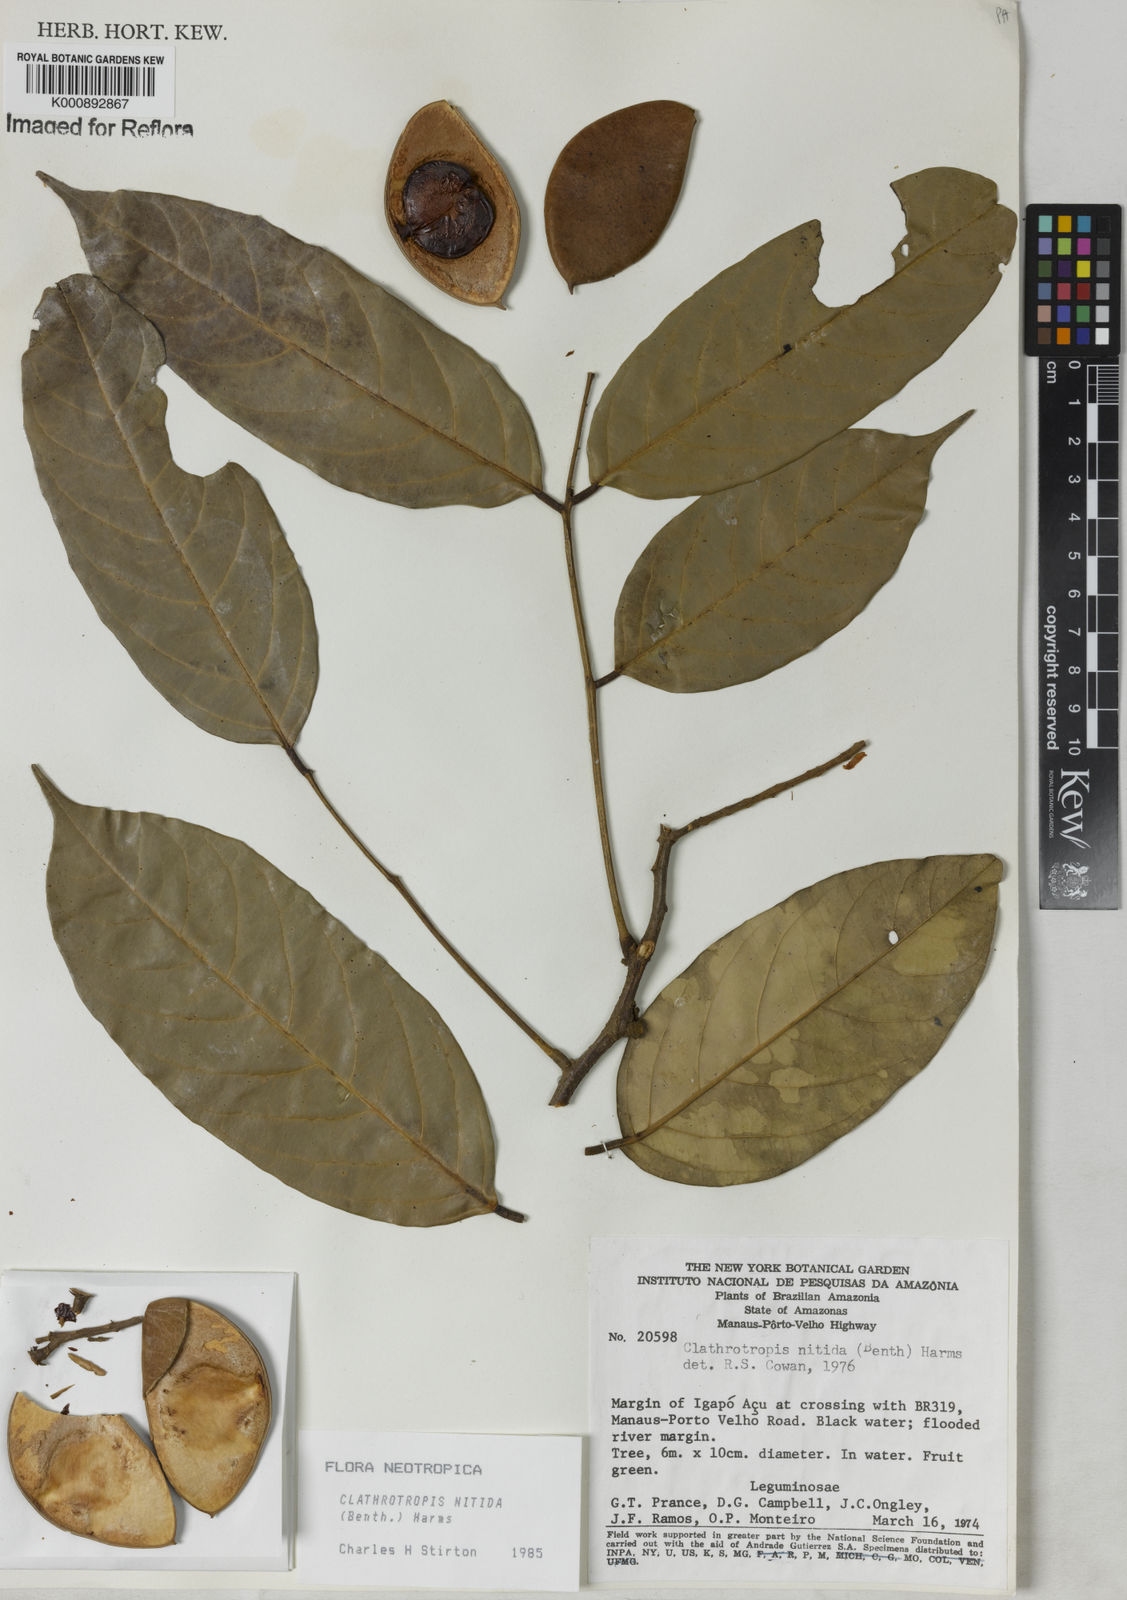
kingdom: Plantae
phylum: Tracheophyta
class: Magnoliopsida
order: Fabales
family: Fabaceae
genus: Clathrotropis
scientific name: Clathrotropis nitida
